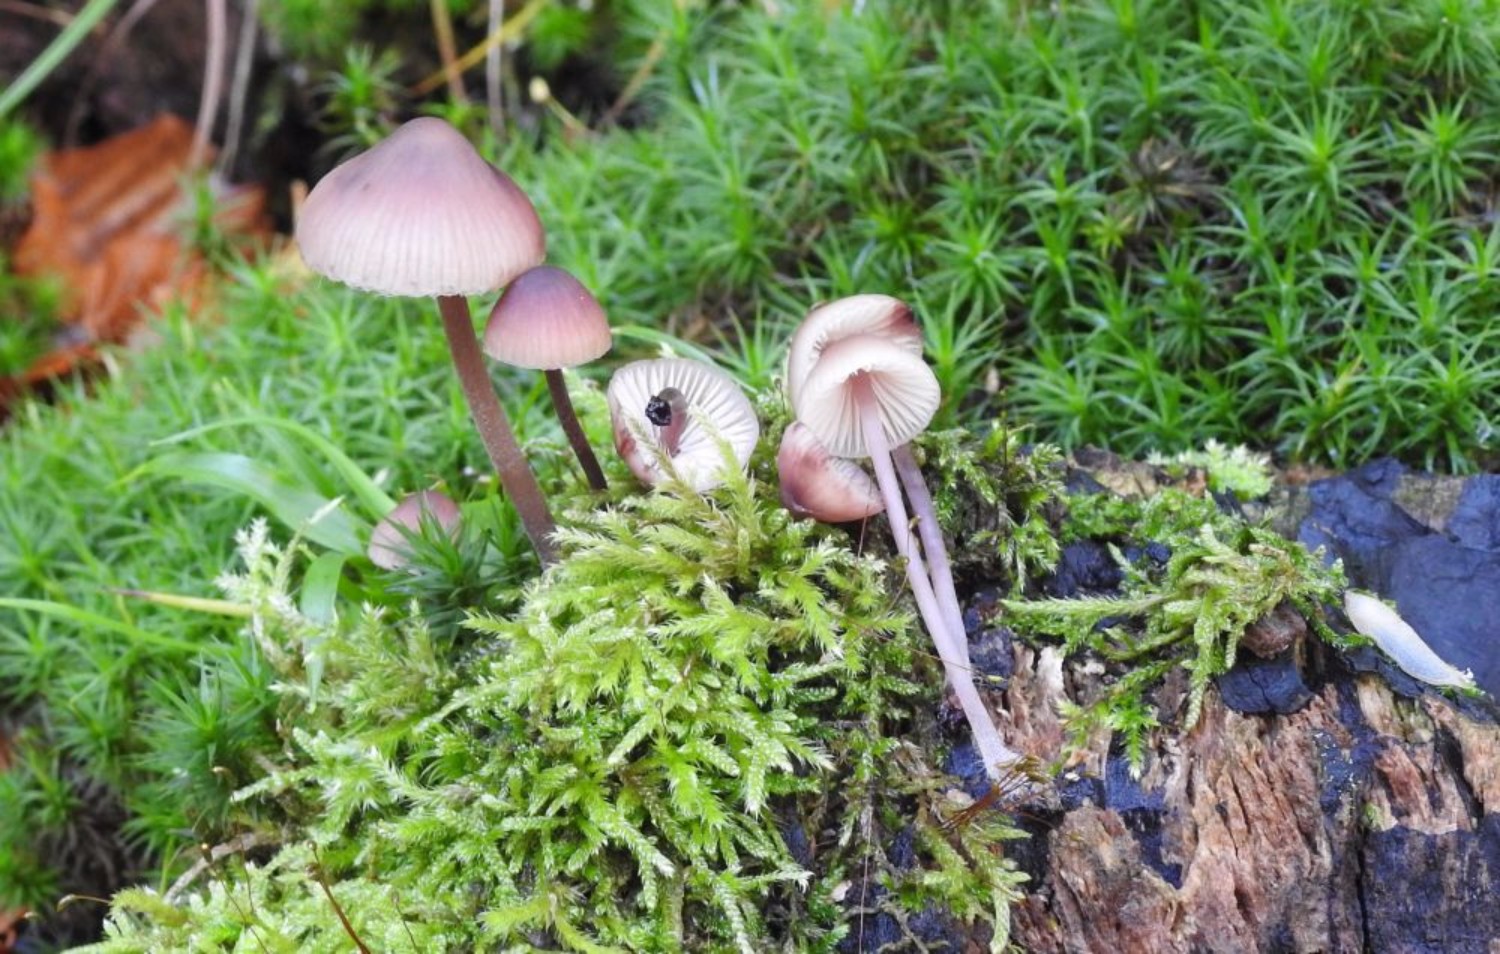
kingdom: Fungi
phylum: Basidiomycota
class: Agaricomycetes
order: Agaricales
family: Mycenaceae
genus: Mycena
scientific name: Mycena haematopus
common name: blødende huesvamp
